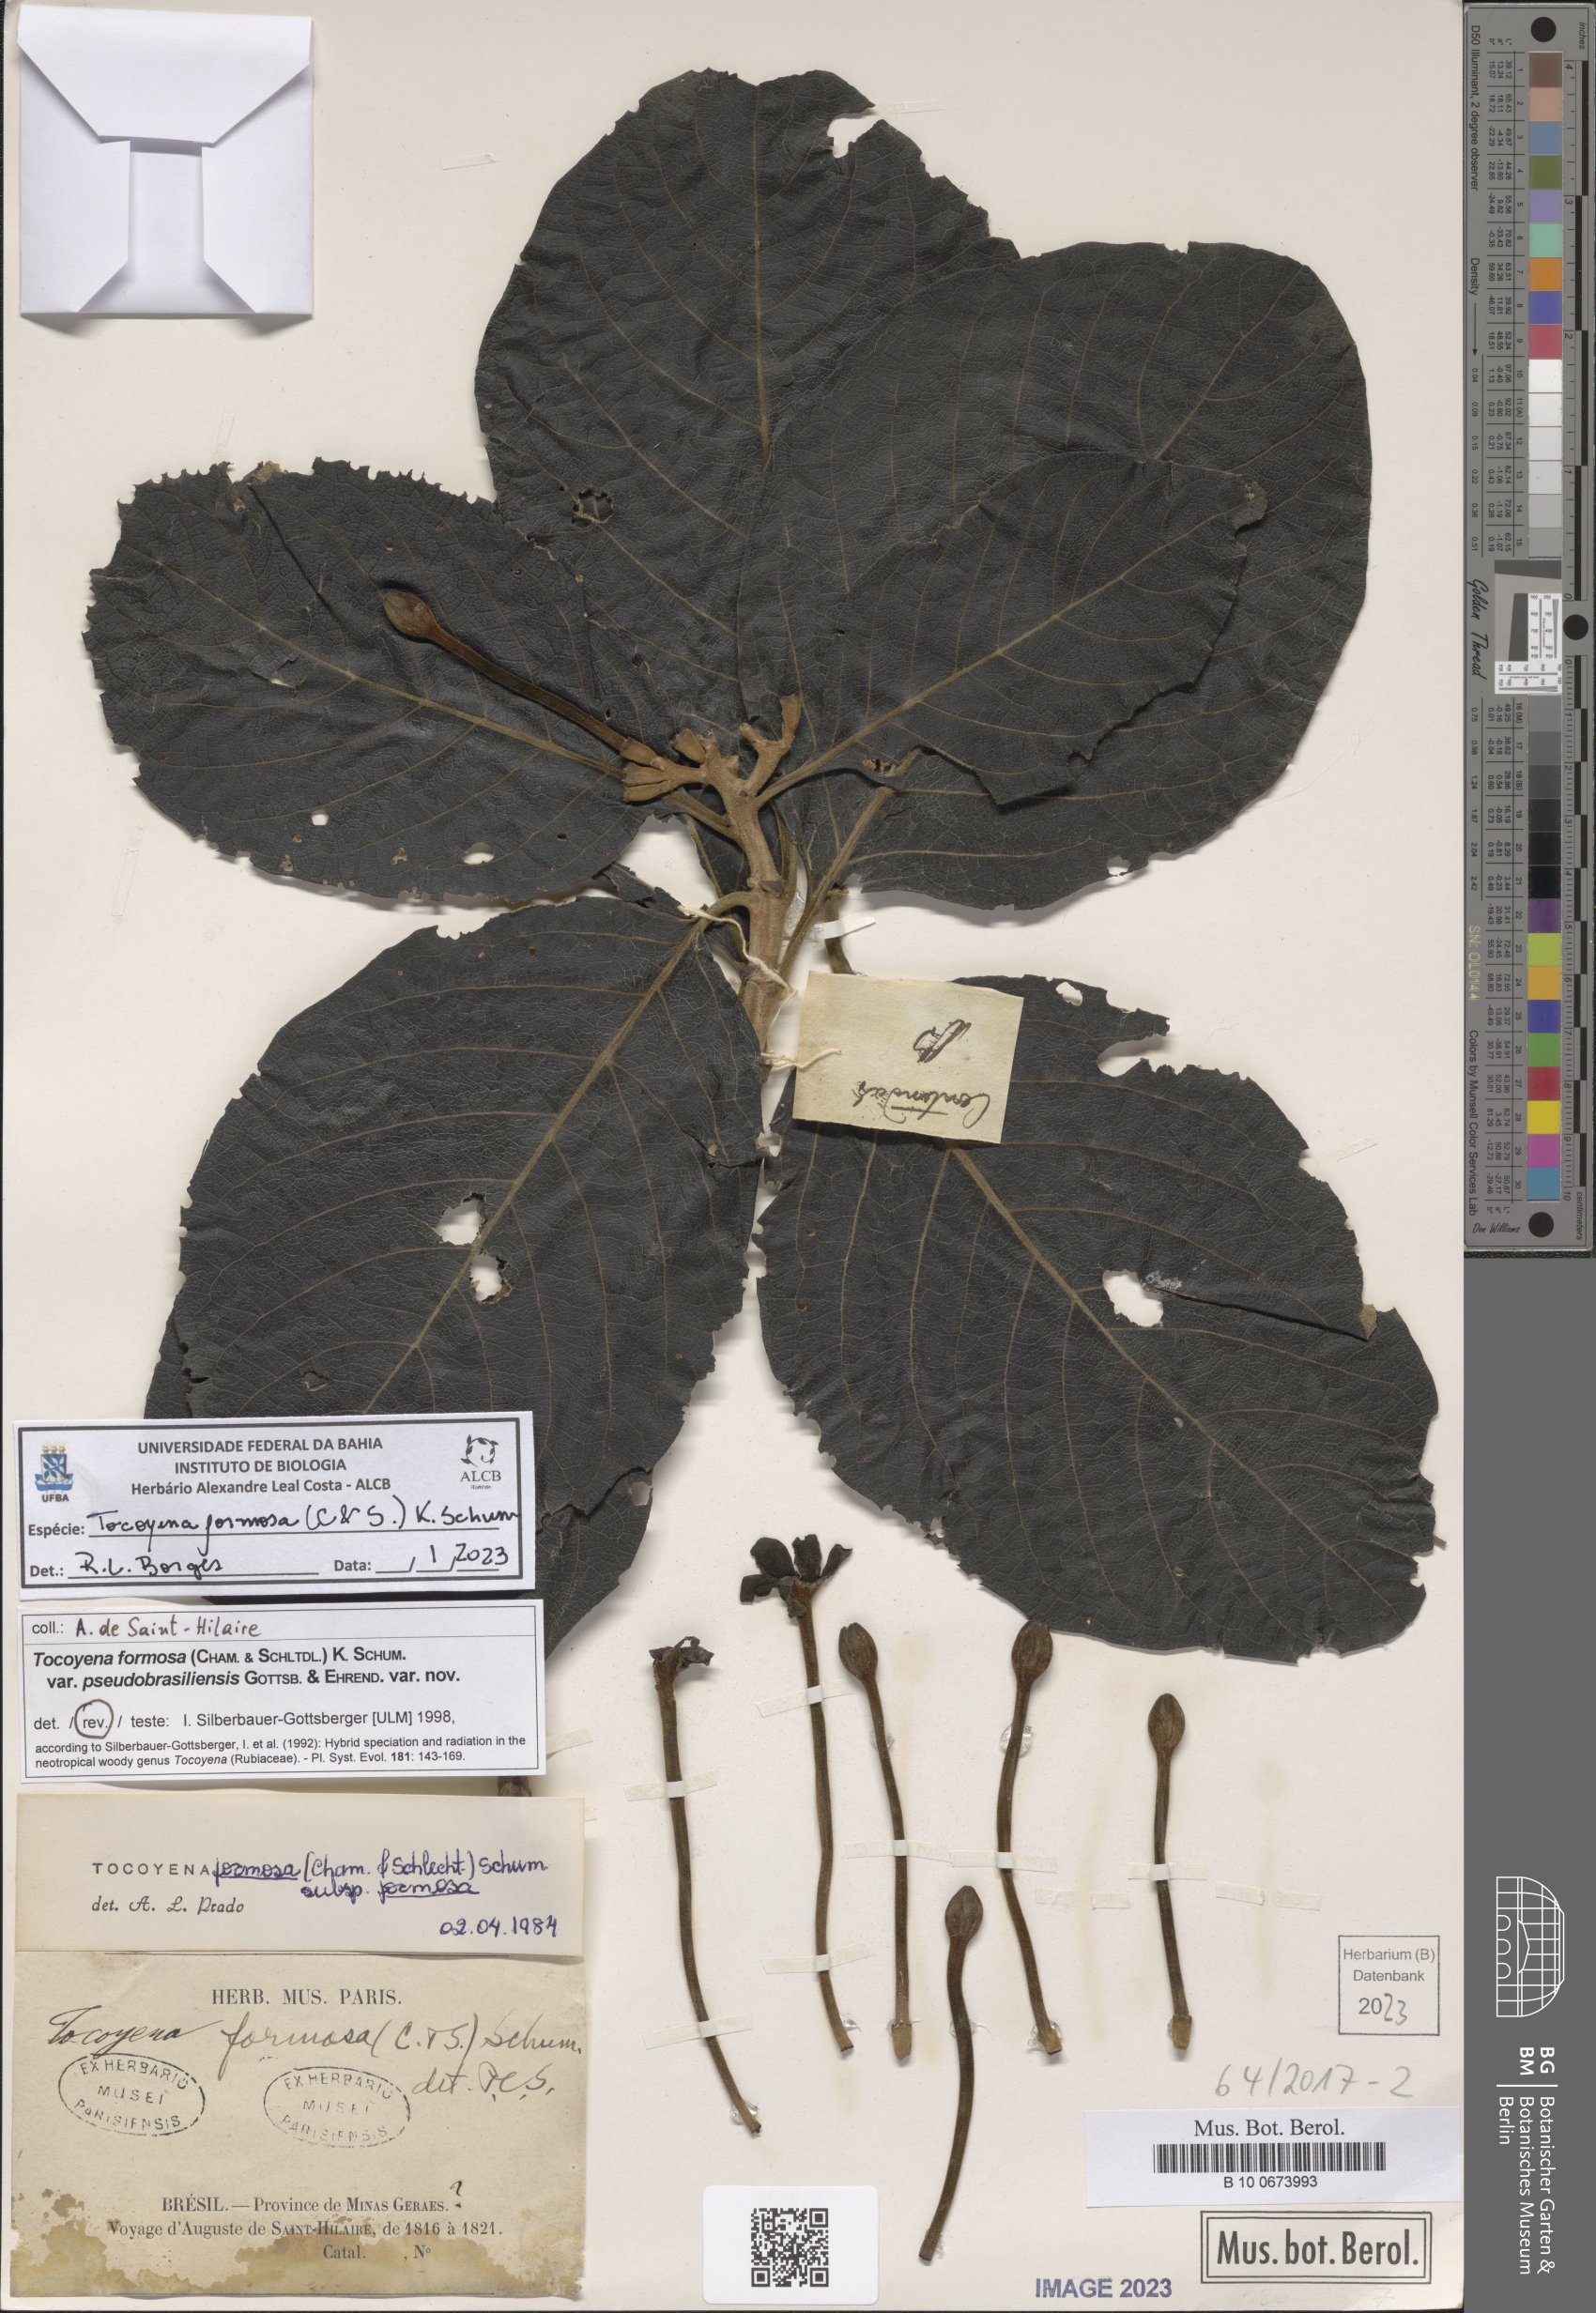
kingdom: Plantae
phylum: Tracheophyta
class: Magnoliopsida
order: Gentianales
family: Rubiaceae
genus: Tocoyena
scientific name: Tocoyena formosa
